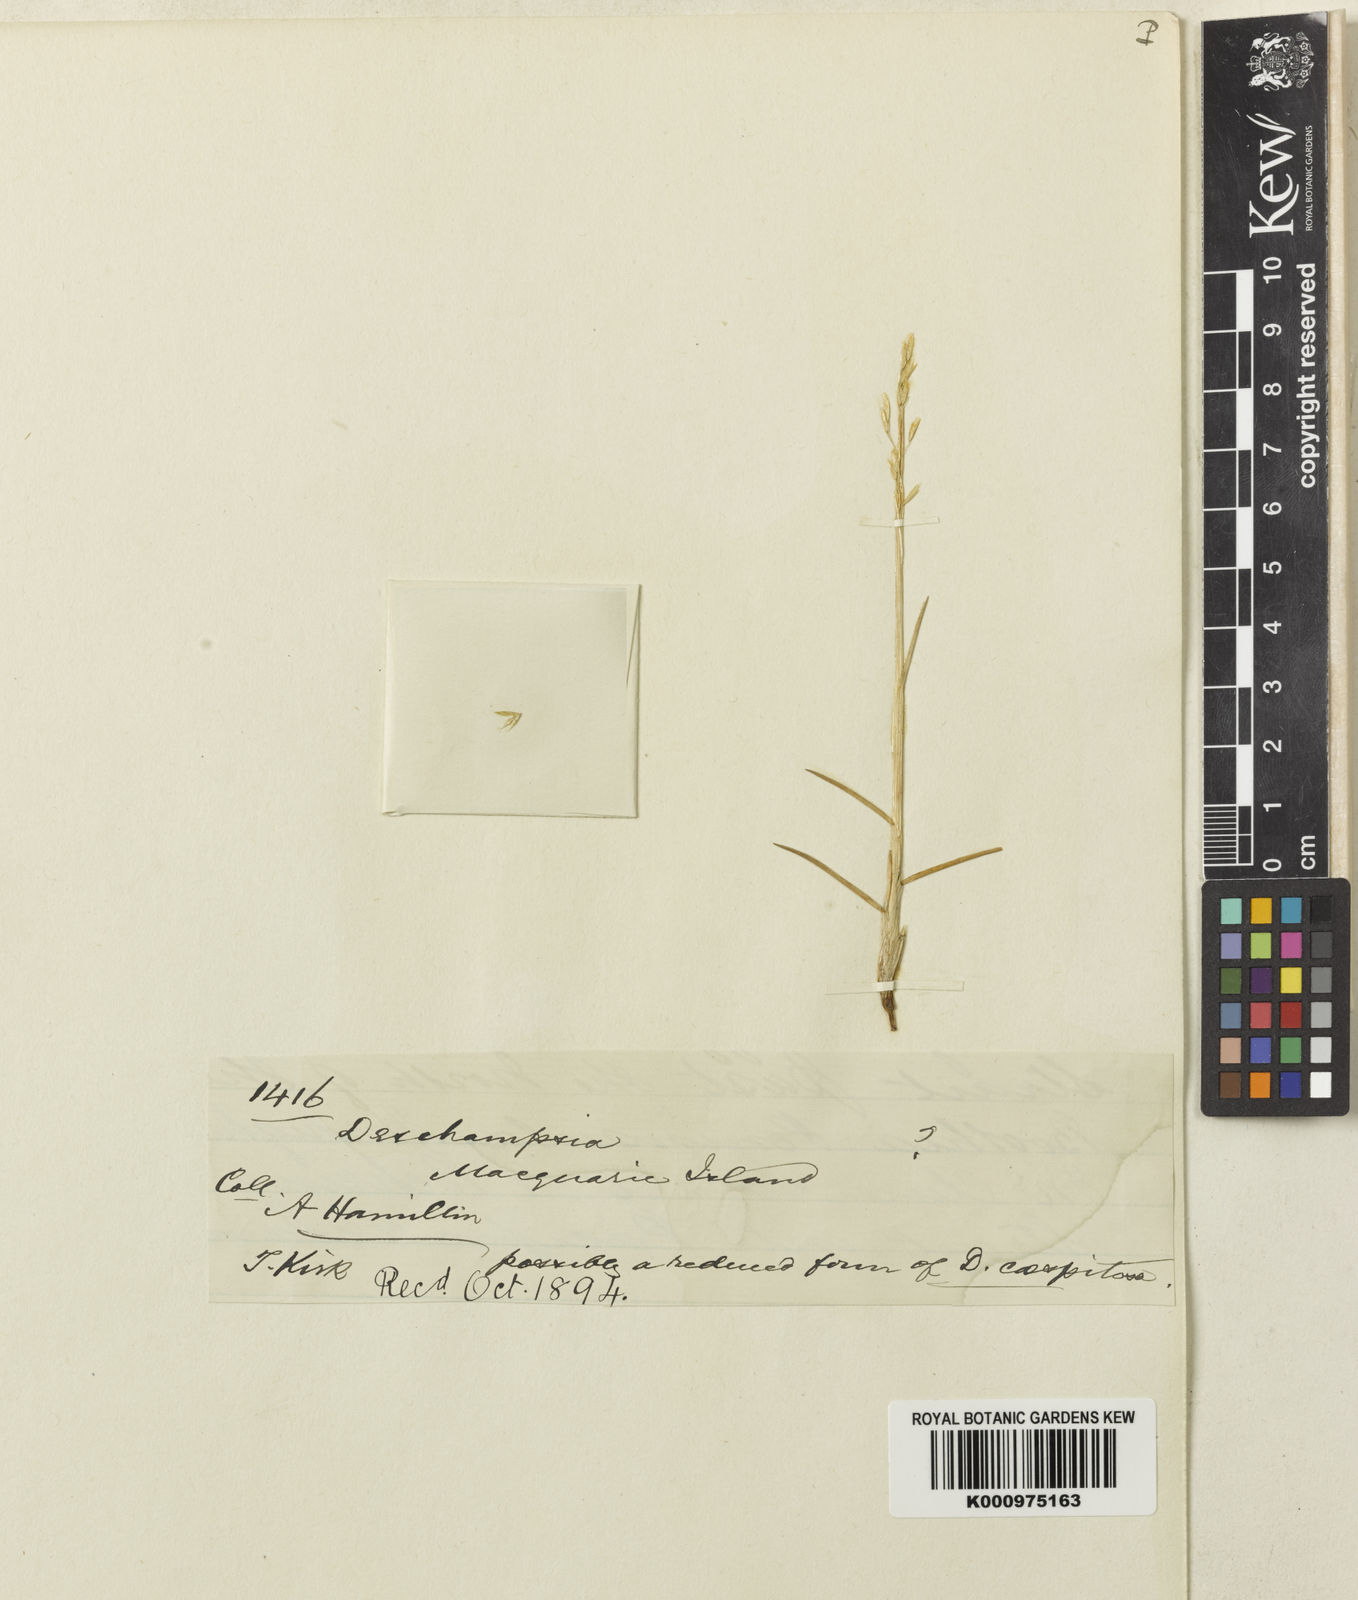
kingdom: Plantae
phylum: Tracheophyta
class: Liliopsida
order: Poales
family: Poaceae
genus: Deschampsia
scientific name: Deschampsia cespitosa
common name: Tufted hair-grass
